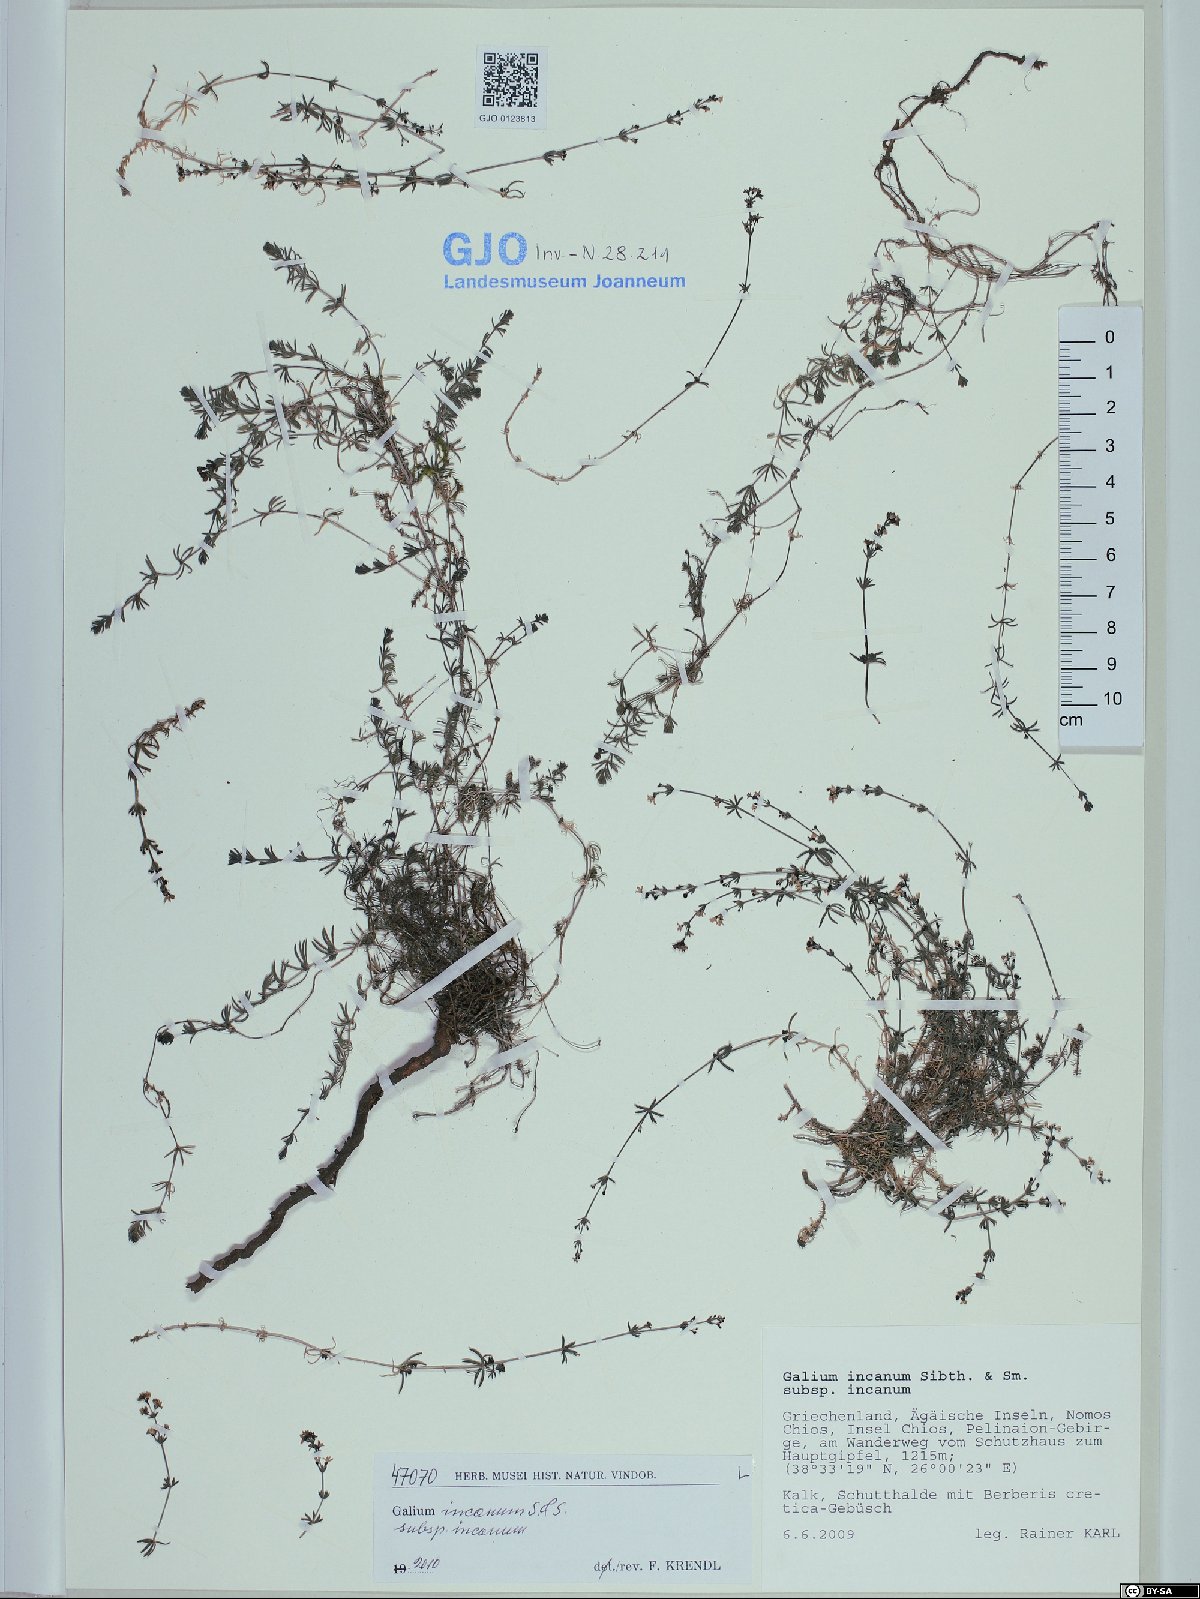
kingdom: Plantae
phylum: Tracheophyta
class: Magnoliopsida
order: Gentianales
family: Rubiaceae
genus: Galium
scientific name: Galium incanum
